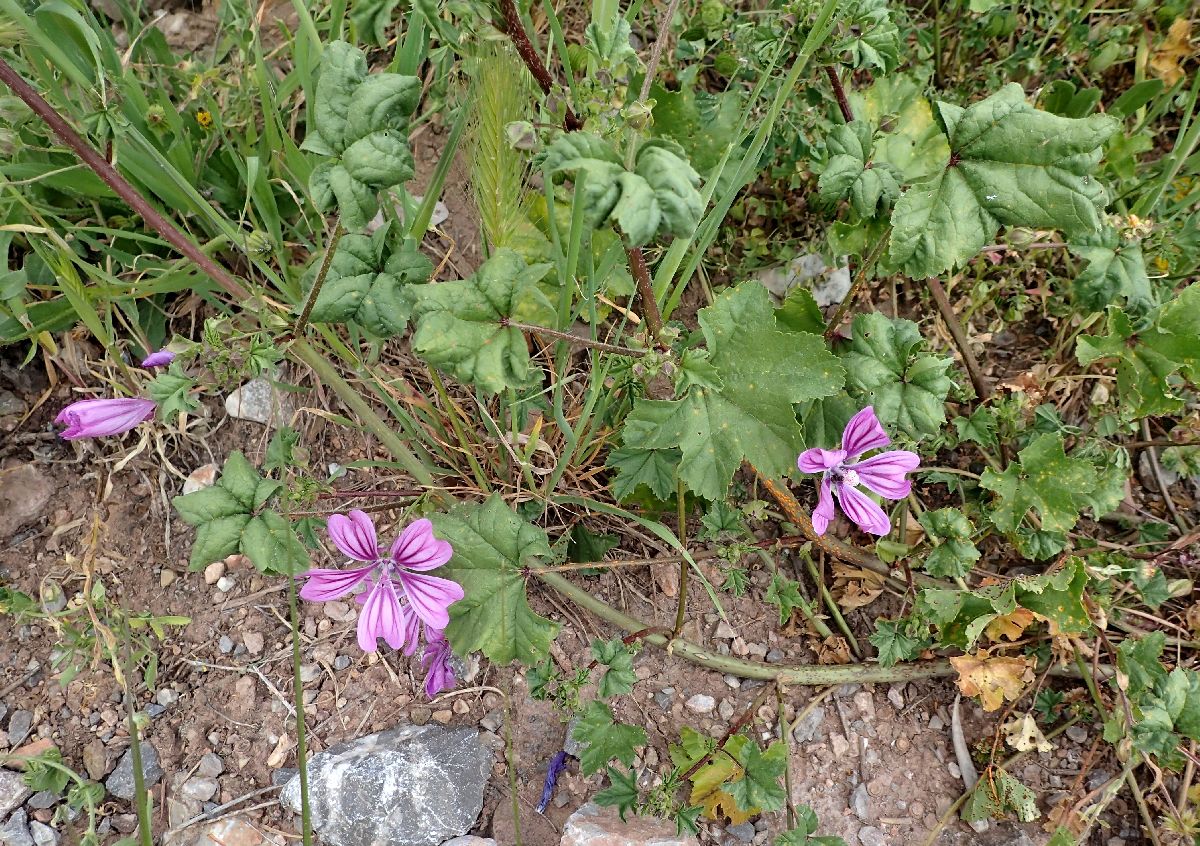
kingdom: Plantae
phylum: Tracheophyta
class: Magnoliopsida
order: Malvales
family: Malvaceae
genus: Malva
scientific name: Malva sylvestris
